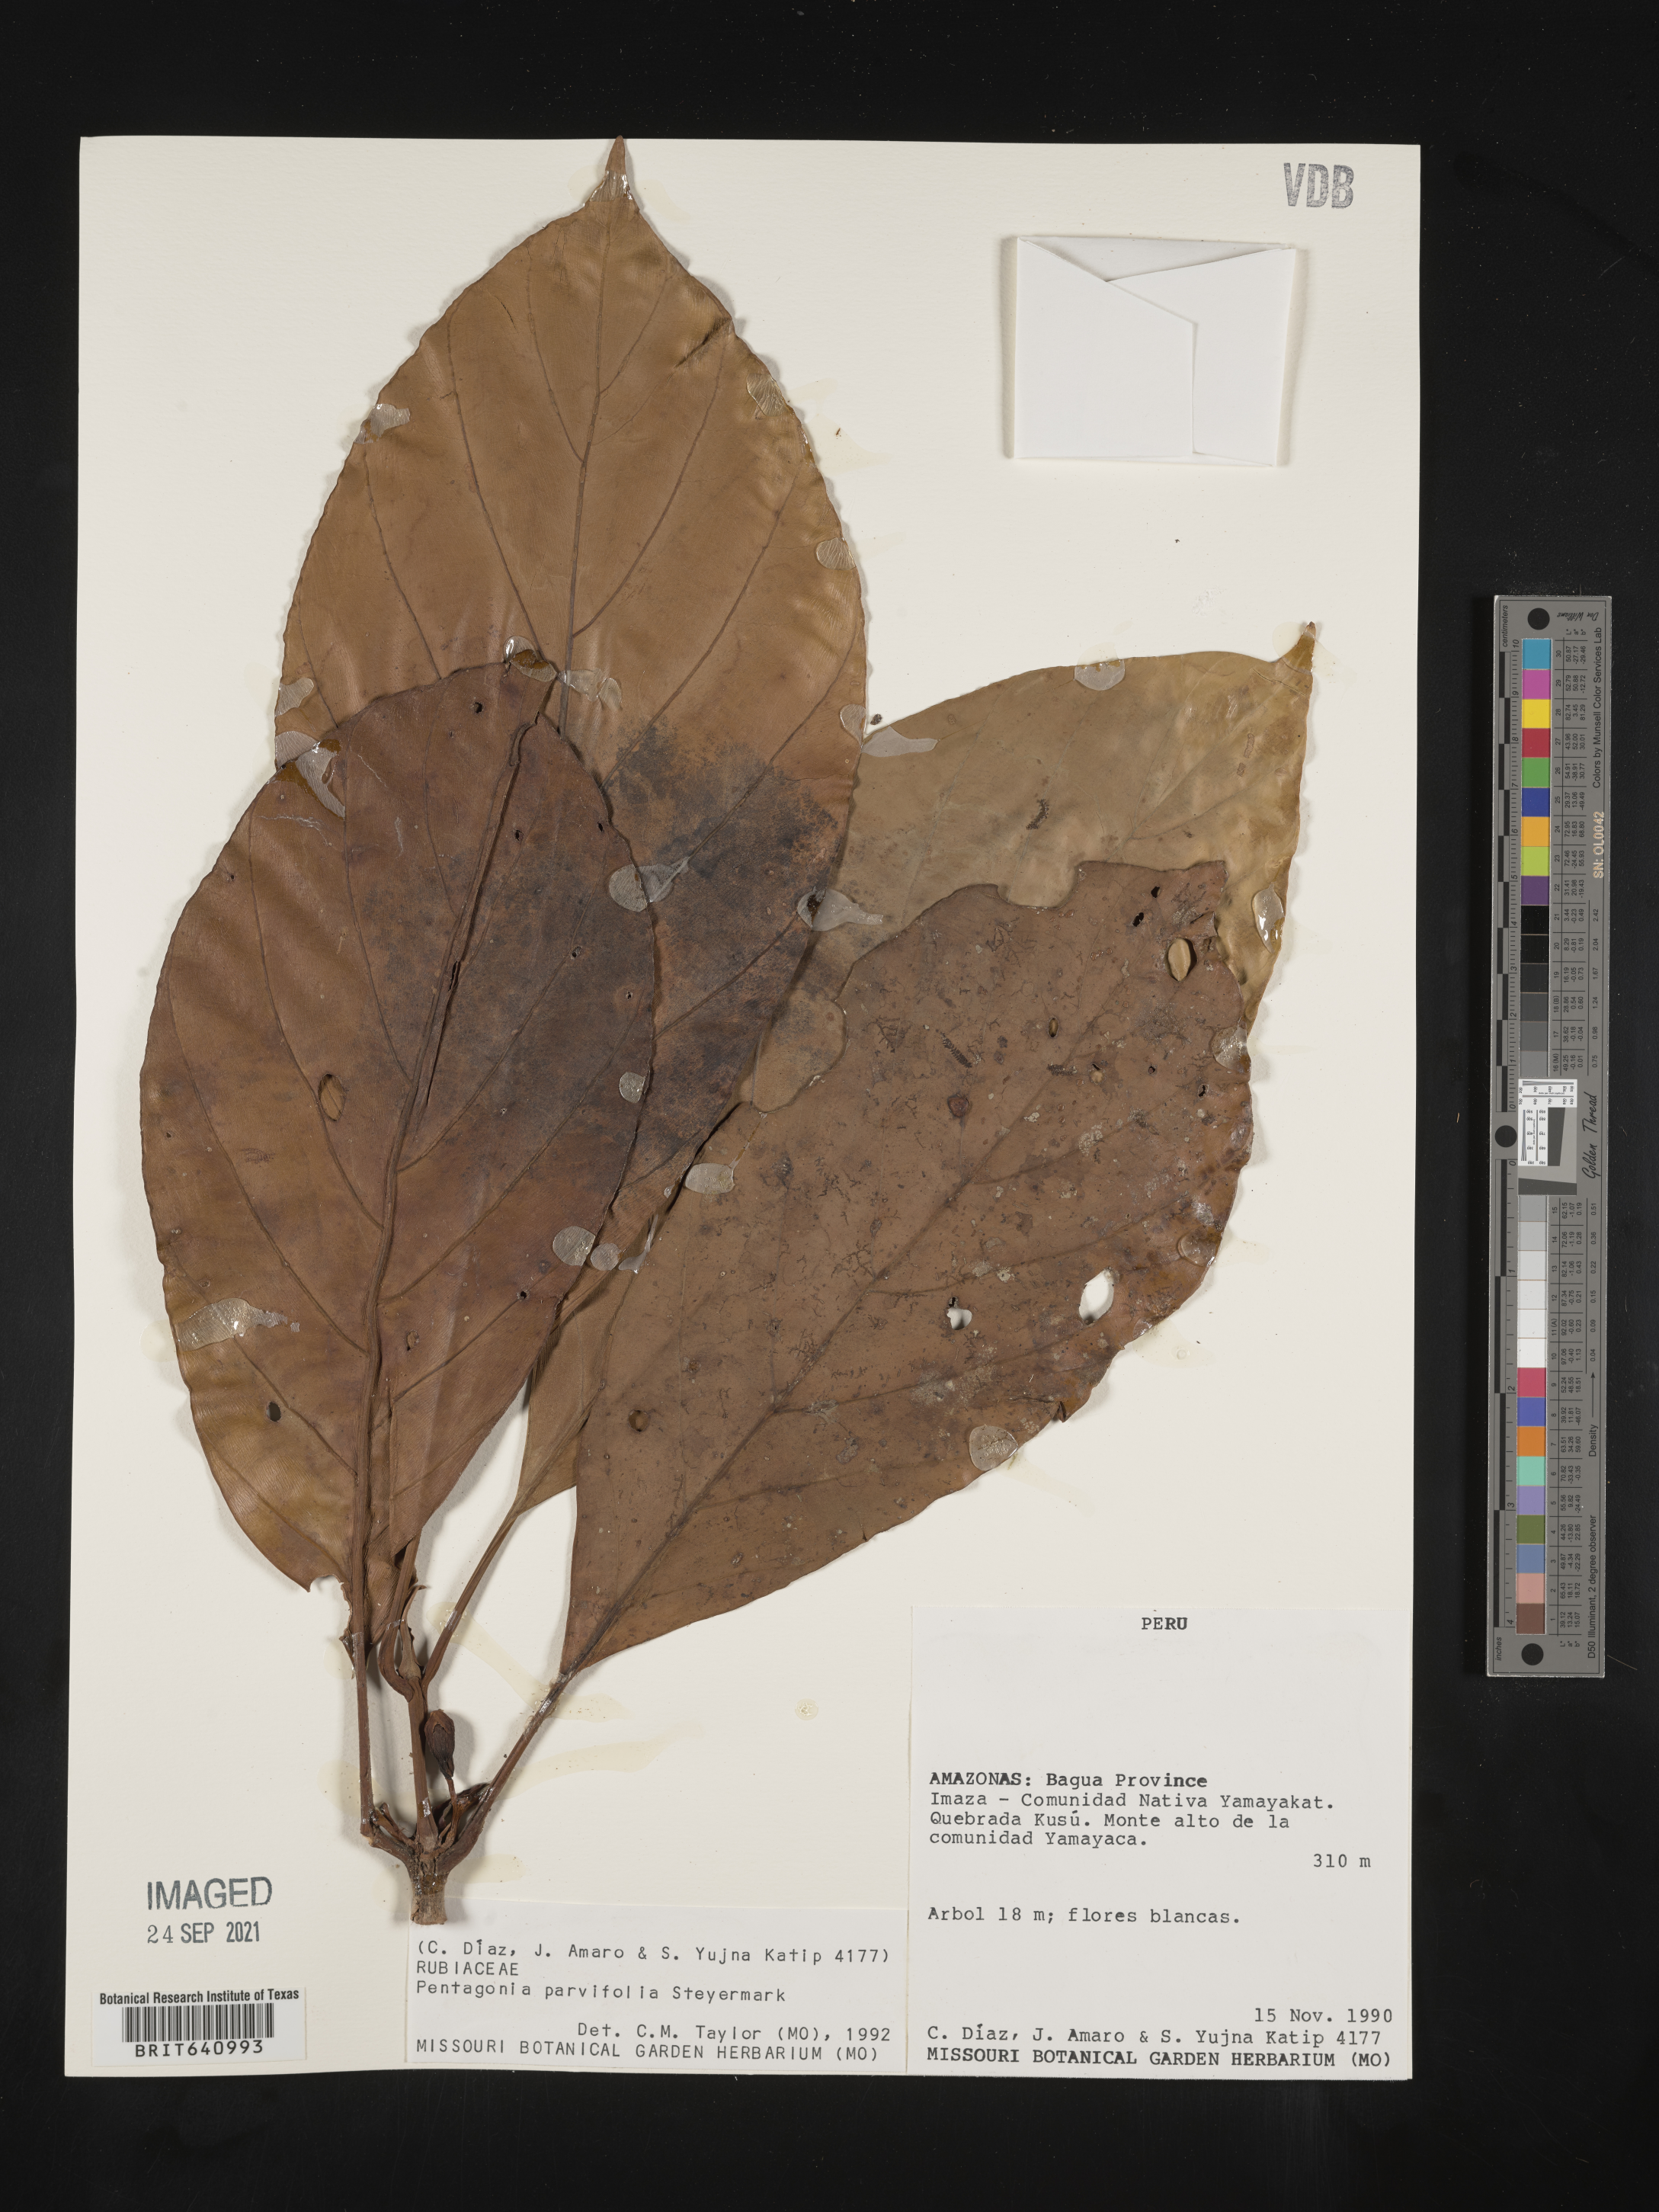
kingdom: Plantae
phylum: Tracheophyta
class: Magnoliopsida
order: Gentianales
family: Rubiaceae
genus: Pentagonia
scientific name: Pentagonia
